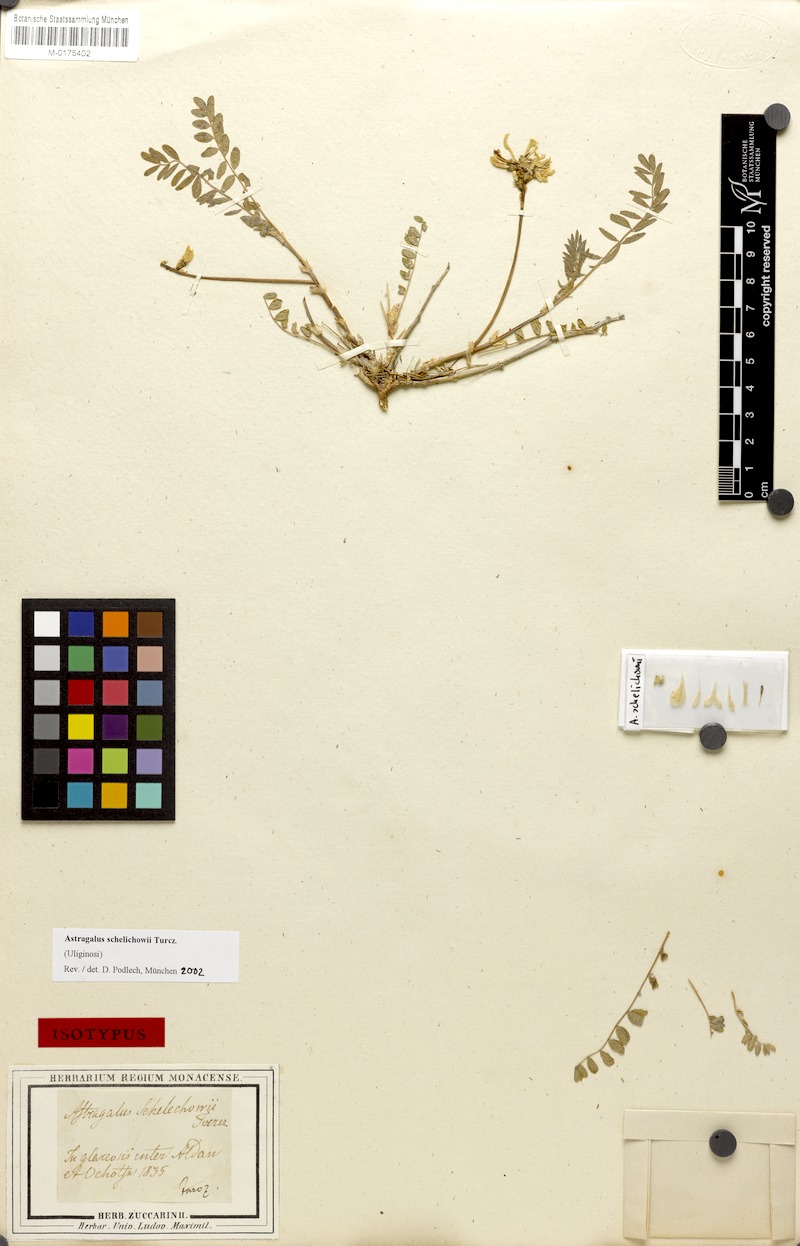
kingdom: Plantae
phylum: Tracheophyta
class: Magnoliopsida
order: Fabales
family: Fabaceae
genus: Astragalus
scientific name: Astragalus schelichowii
